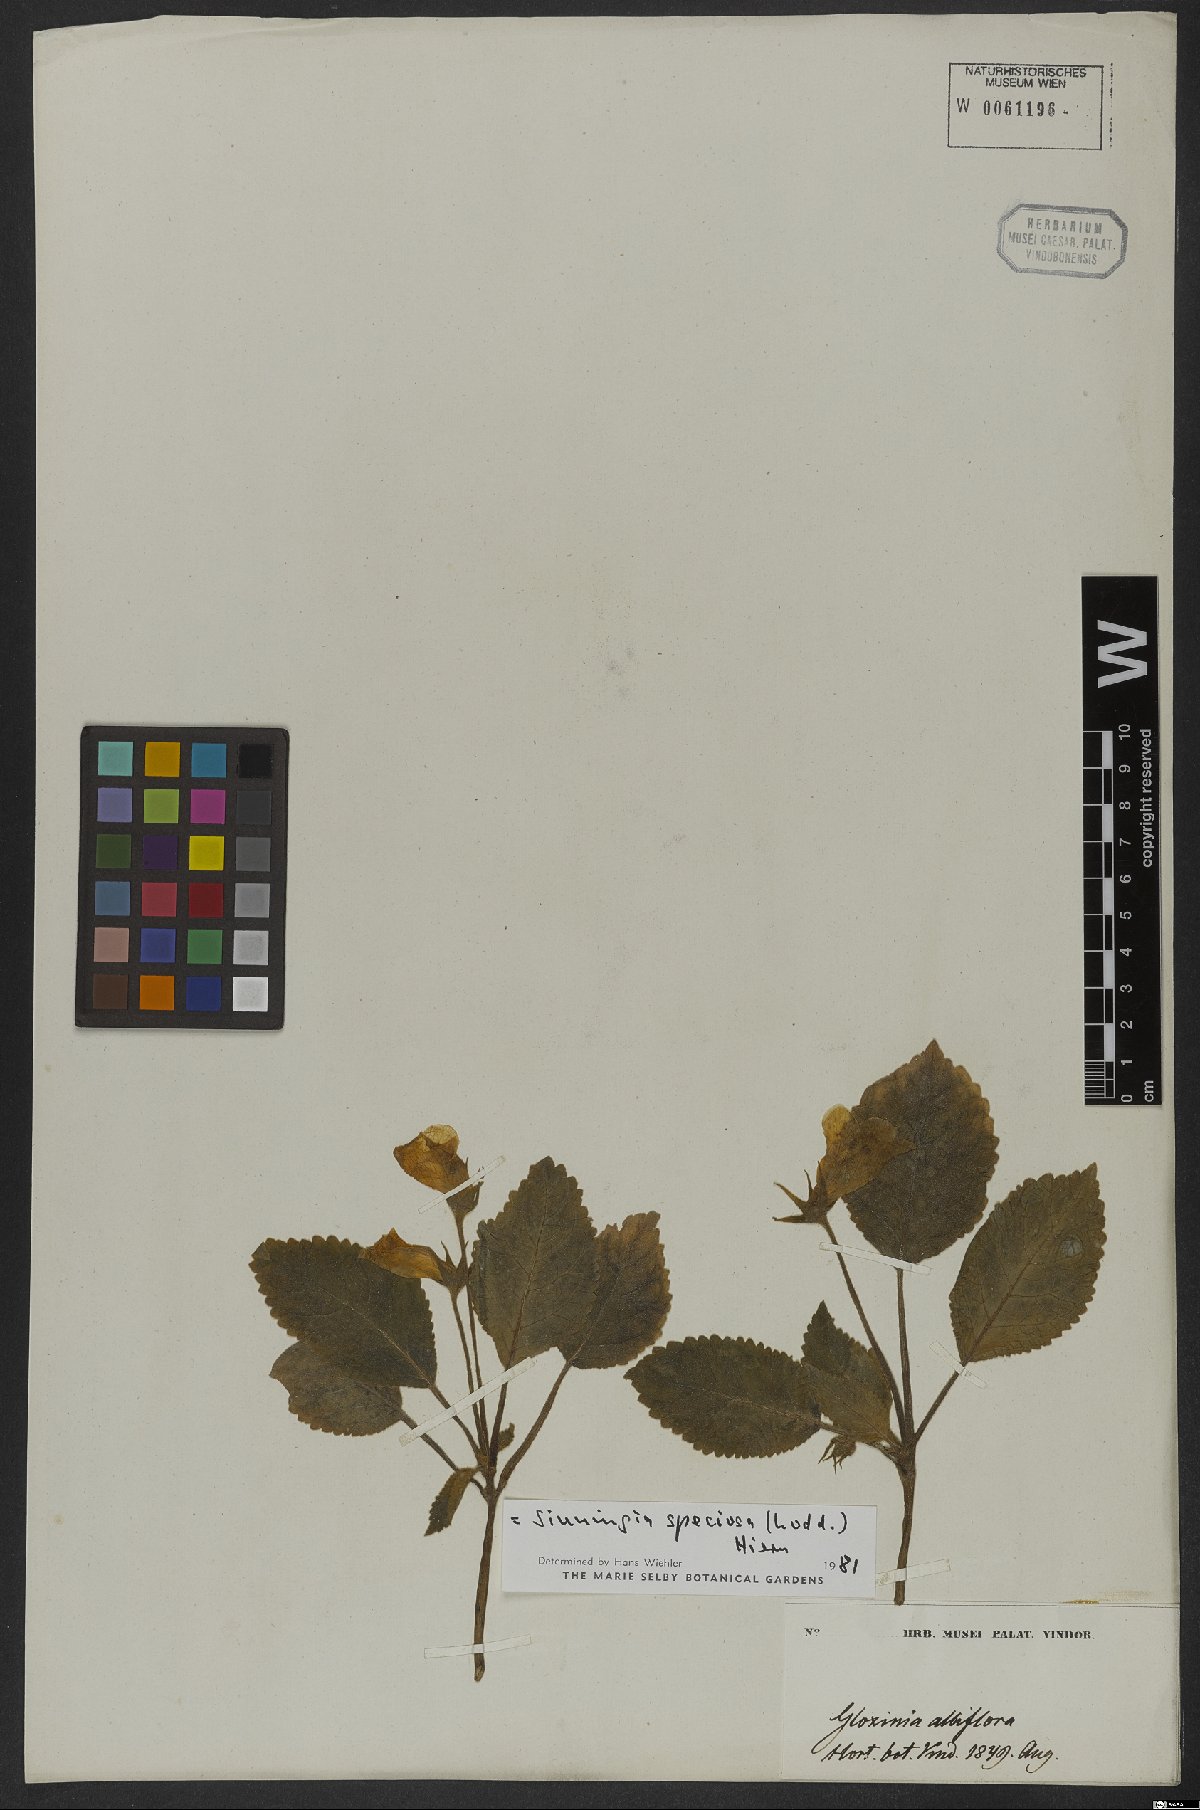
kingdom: Plantae
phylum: Tracheophyta
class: Magnoliopsida
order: Lamiales
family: Gesneriaceae
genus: Sinningia
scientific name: Sinningia speciosa
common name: Brazilian gloxinia
